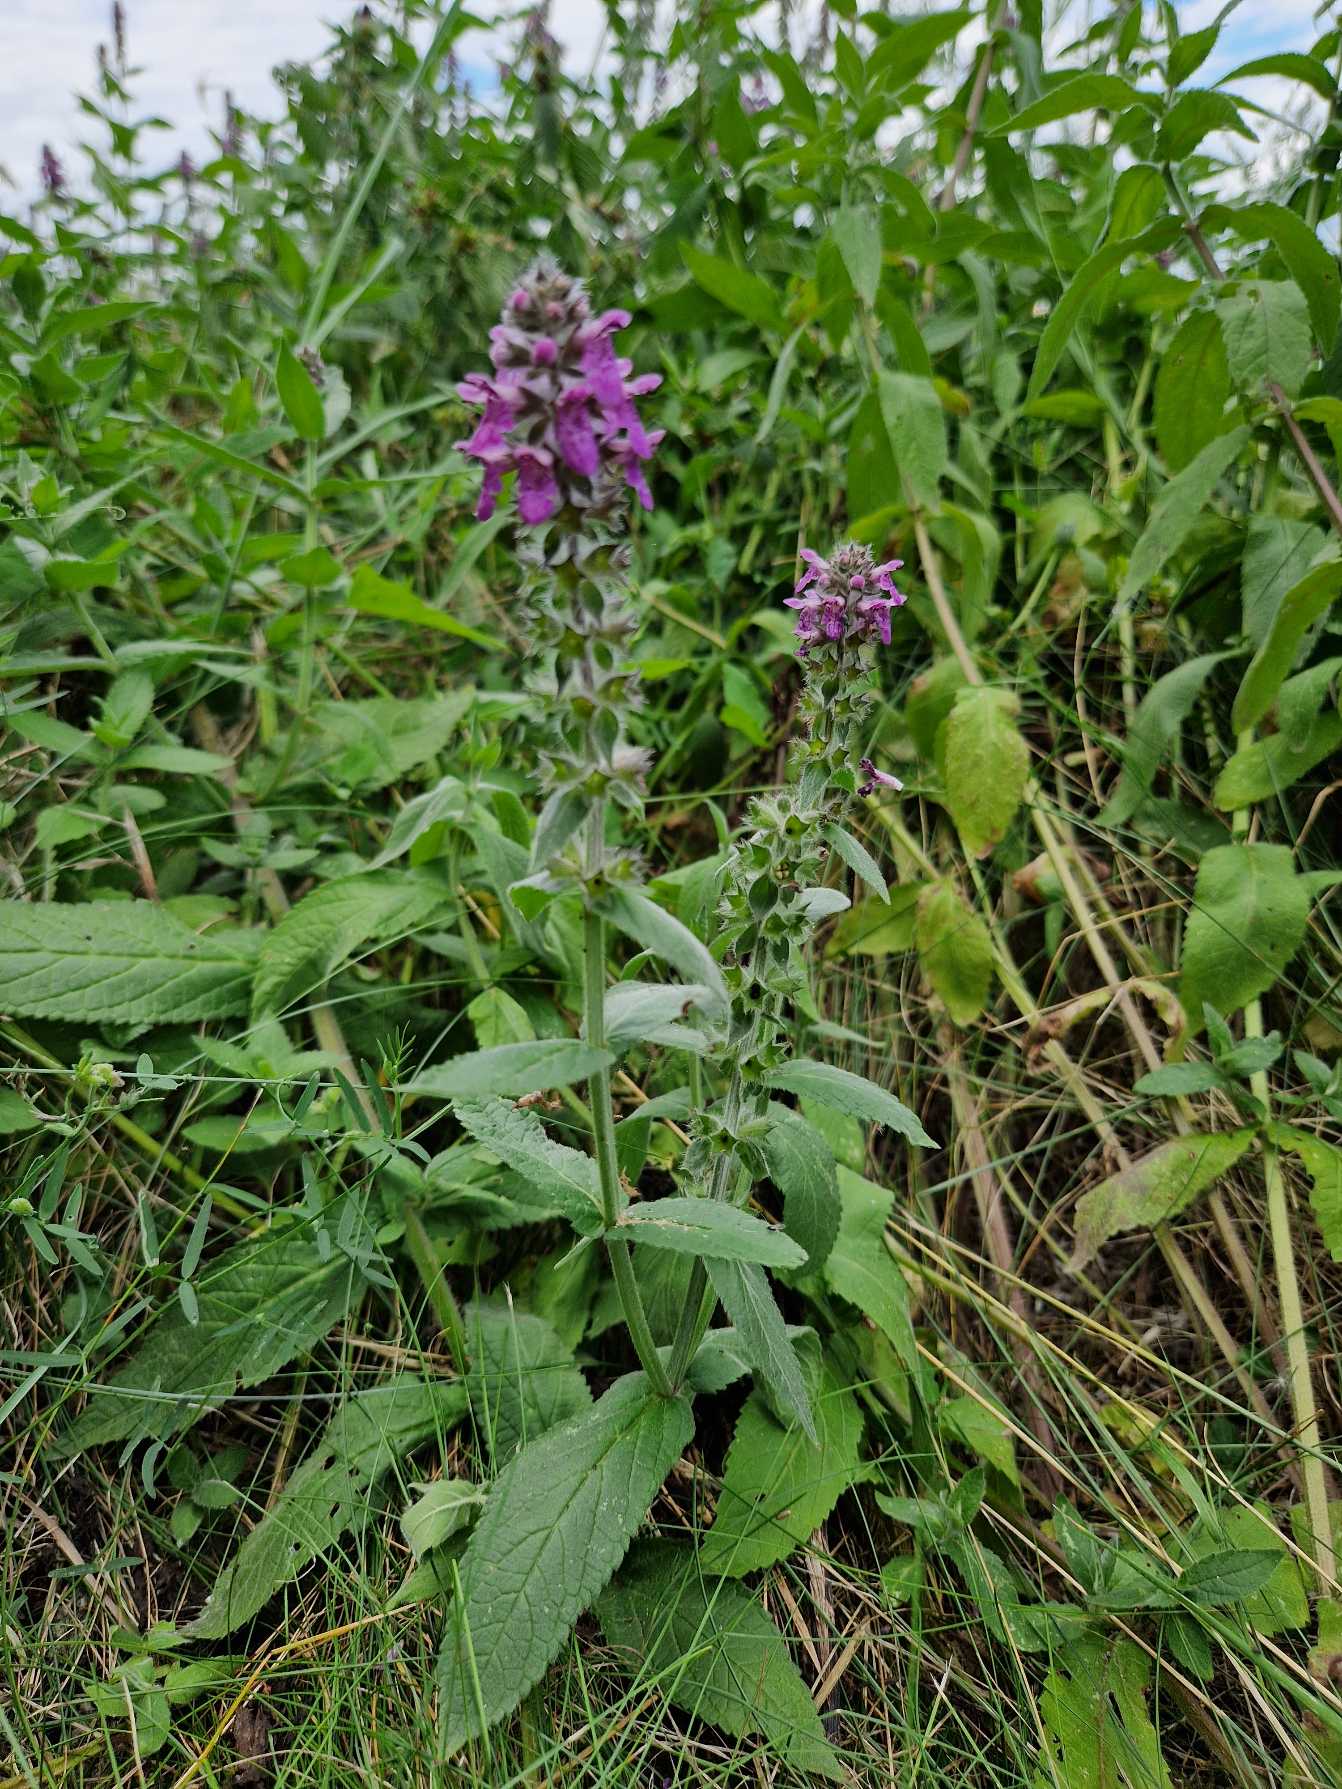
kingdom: Plantae
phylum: Tracheophyta
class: Magnoliopsida
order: Lamiales
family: Lamiaceae
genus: Stachys
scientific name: Stachys palustris
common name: Kær-galtetand
